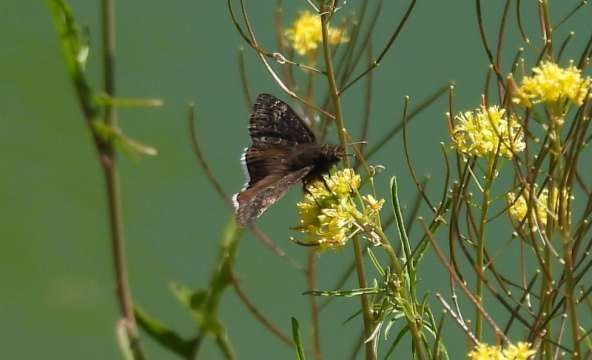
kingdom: Animalia
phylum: Arthropoda
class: Insecta
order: Lepidoptera
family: Hesperiidae
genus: Erynnis
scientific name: Erynnis funeralis
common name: Funereal Duskywing
